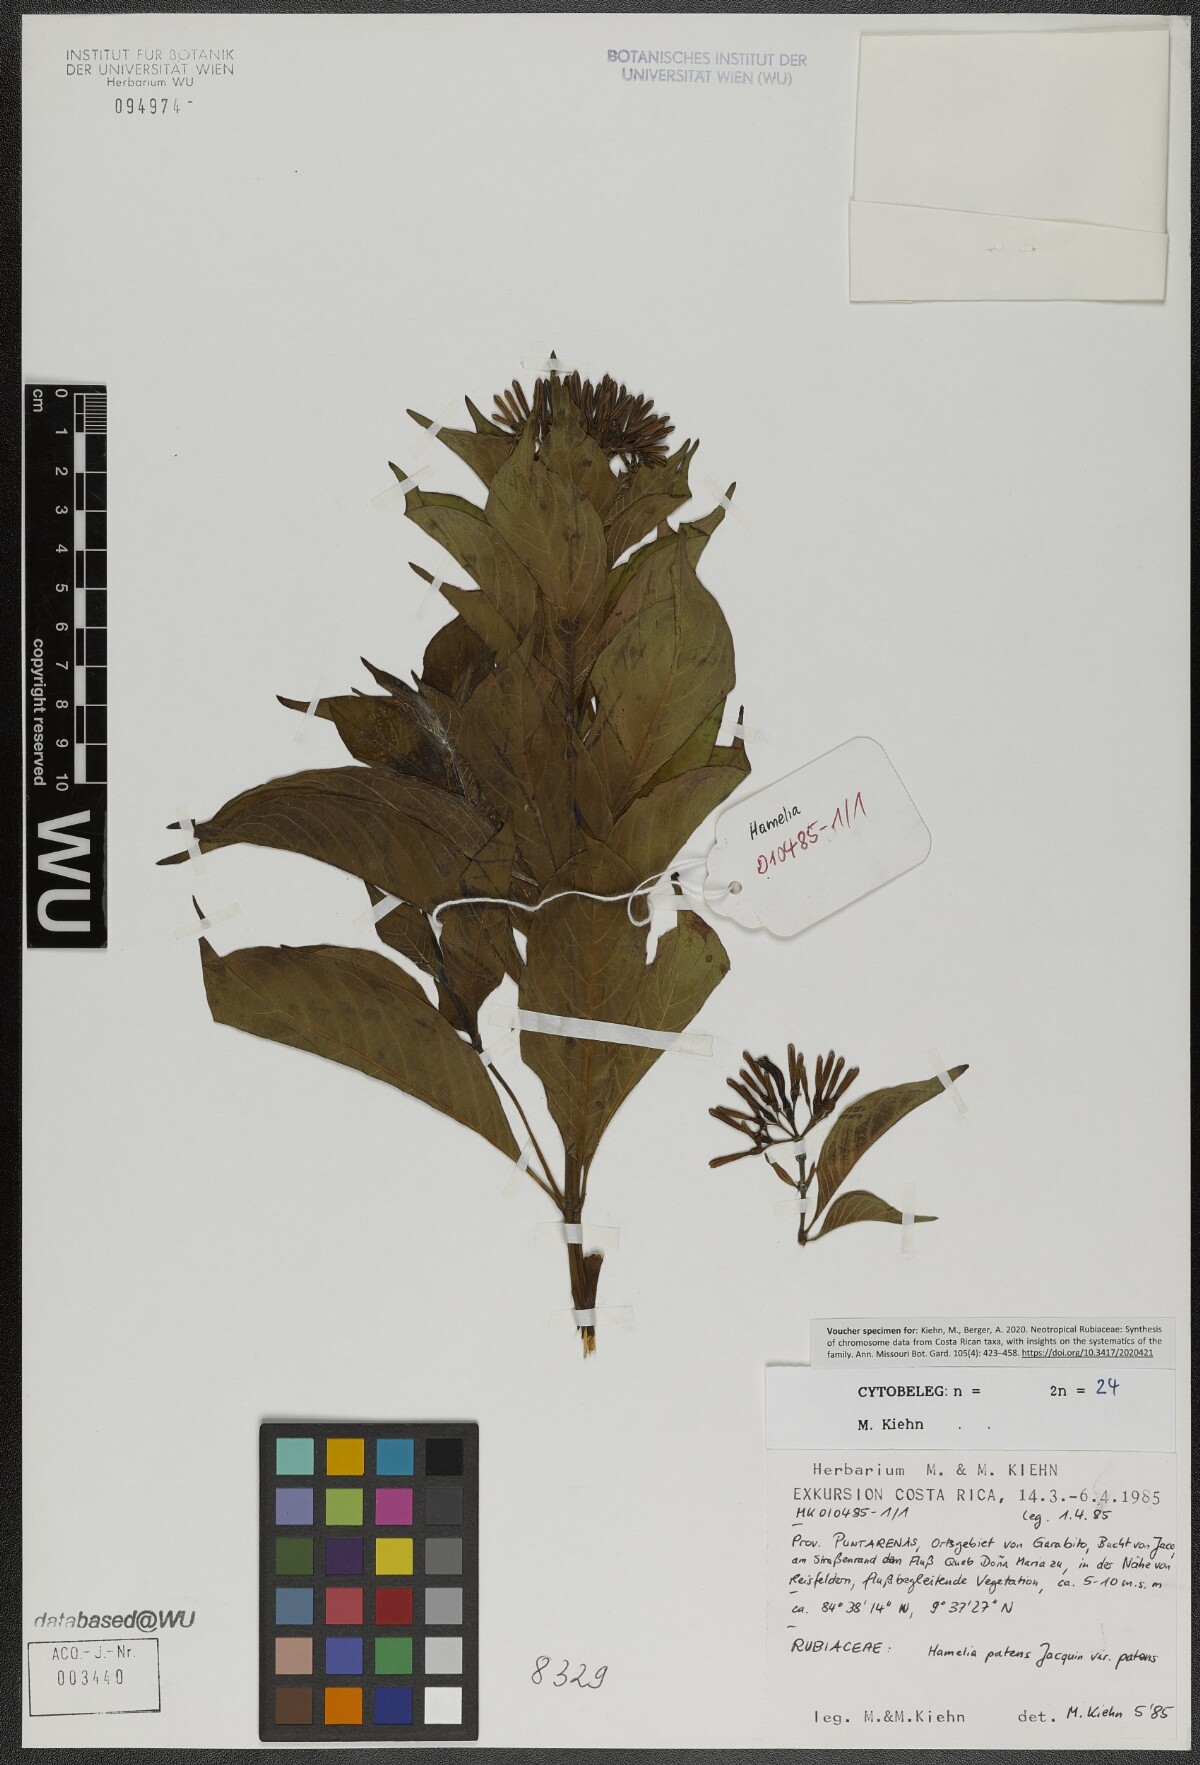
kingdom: Plantae
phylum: Tracheophyta
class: Magnoliopsida
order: Gentianales
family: Rubiaceae
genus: Hamelia
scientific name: Hamelia patens
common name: Redhead
